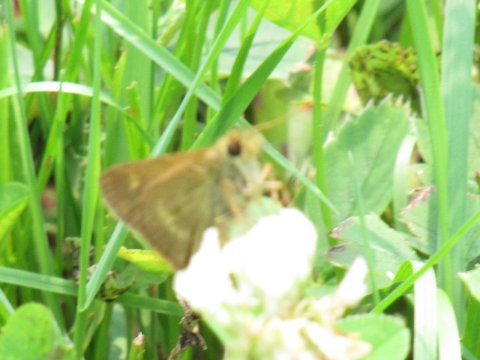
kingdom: Animalia
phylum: Arthropoda
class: Insecta
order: Lepidoptera
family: Hesperiidae
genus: Polites
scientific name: Polites egeremet
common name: Northern Broken-Dash
